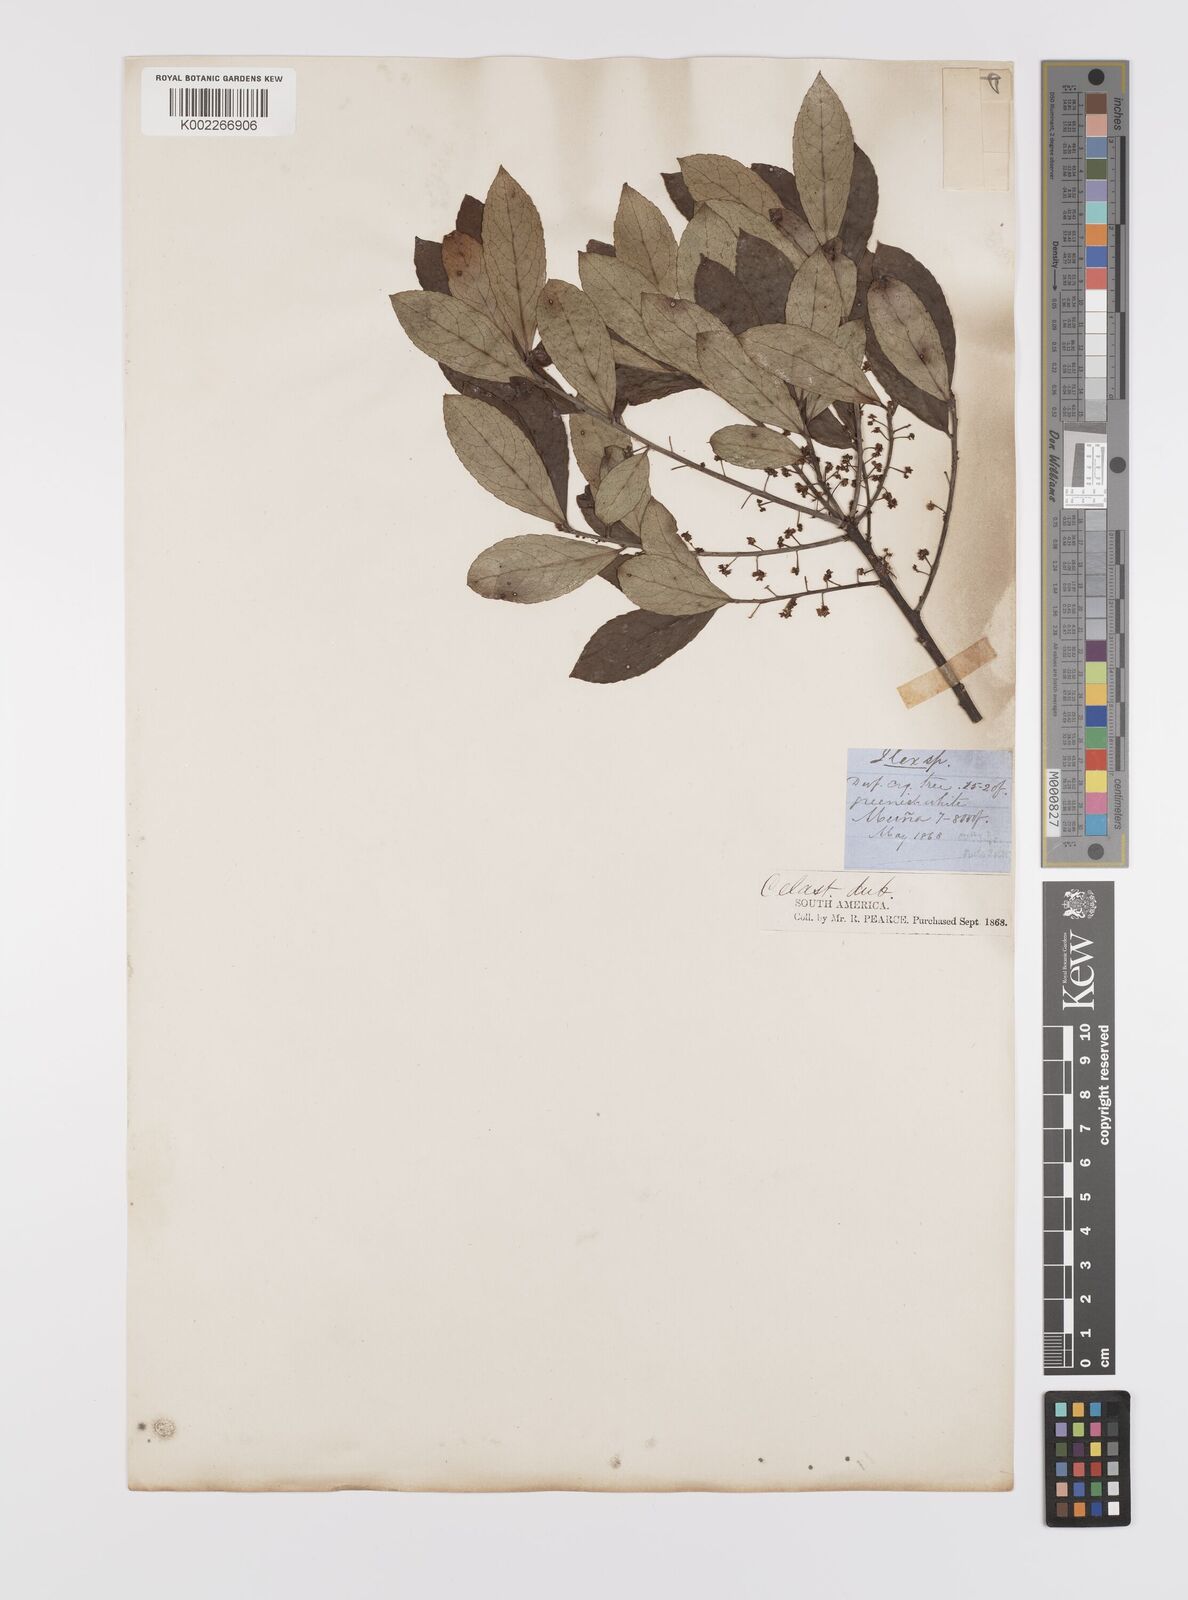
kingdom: Plantae
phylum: Tracheophyta
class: Magnoliopsida
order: Celastrales
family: Celastraceae
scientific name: Celastraceae
